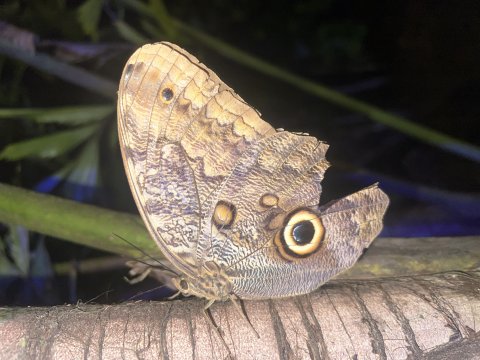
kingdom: Animalia
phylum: Arthropoda
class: Insecta
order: Lepidoptera
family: Nymphalidae
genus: Caligo
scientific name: Caligo brasiliensis
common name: Dark Owl-Butterfly
